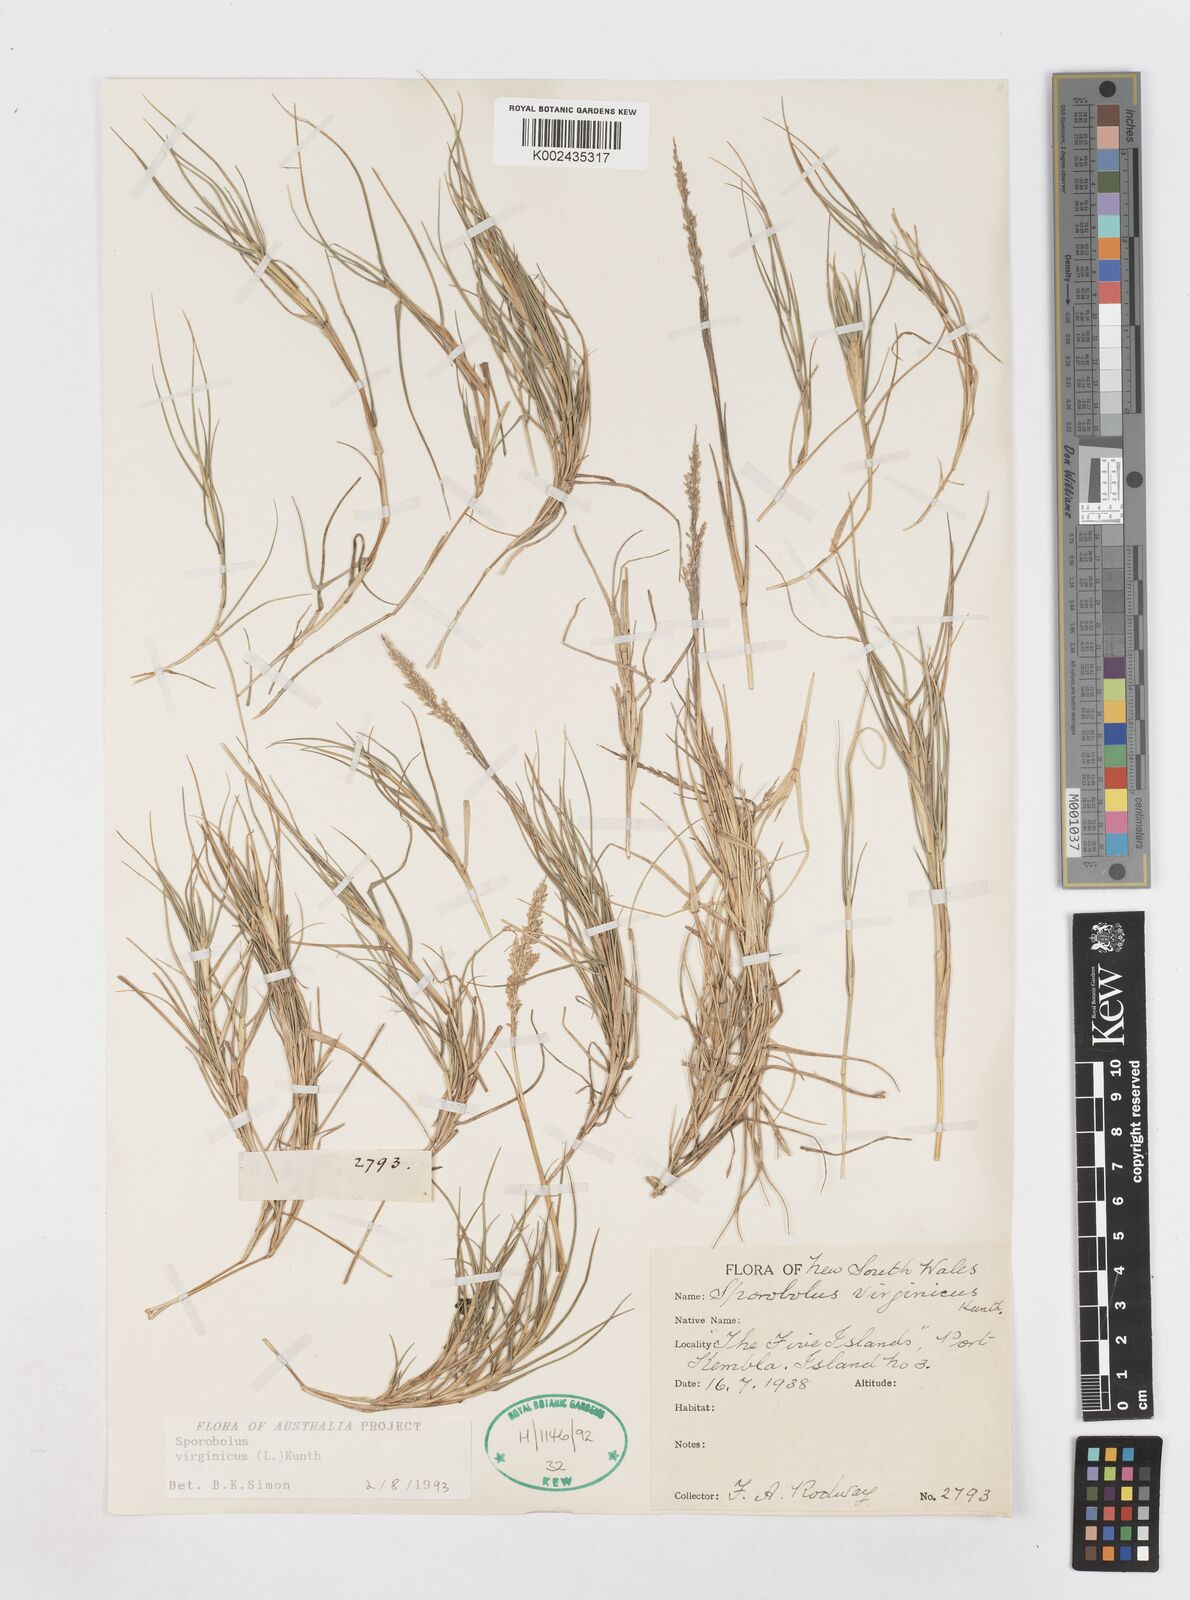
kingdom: Plantae
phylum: Tracheophyta
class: Liliopsida
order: Poales
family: Poaceae
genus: Sporobolus
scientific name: Sporobolus virginicus
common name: Beach dropseed
